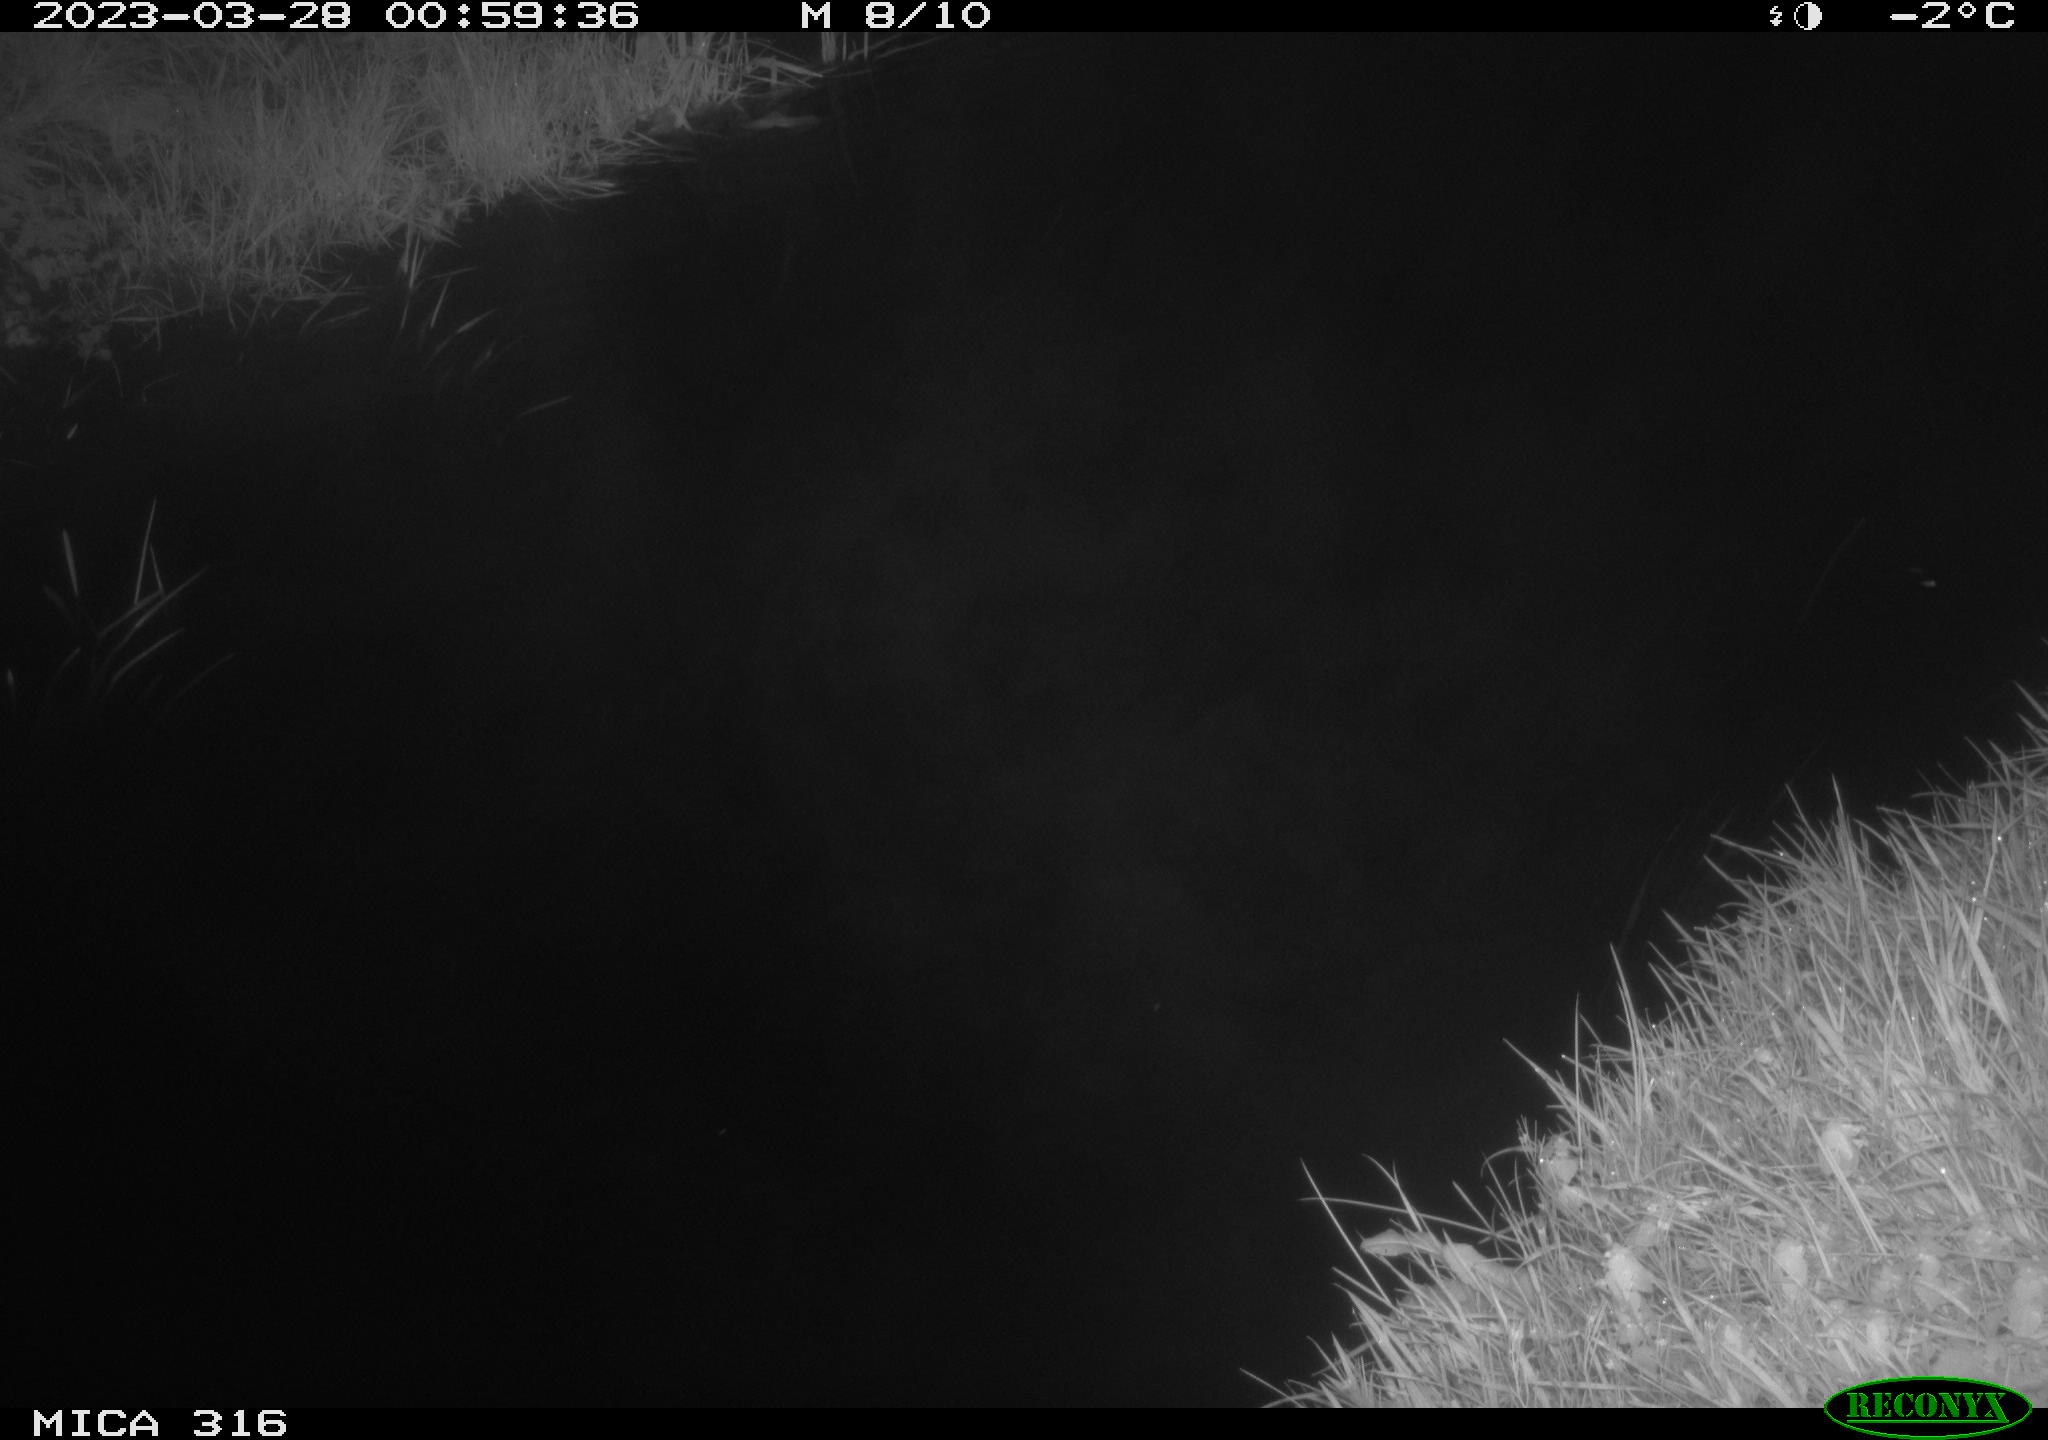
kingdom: Animalia
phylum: Chordata
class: Aves
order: Anseriformes
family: Anatidae
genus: Anas
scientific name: Anas
